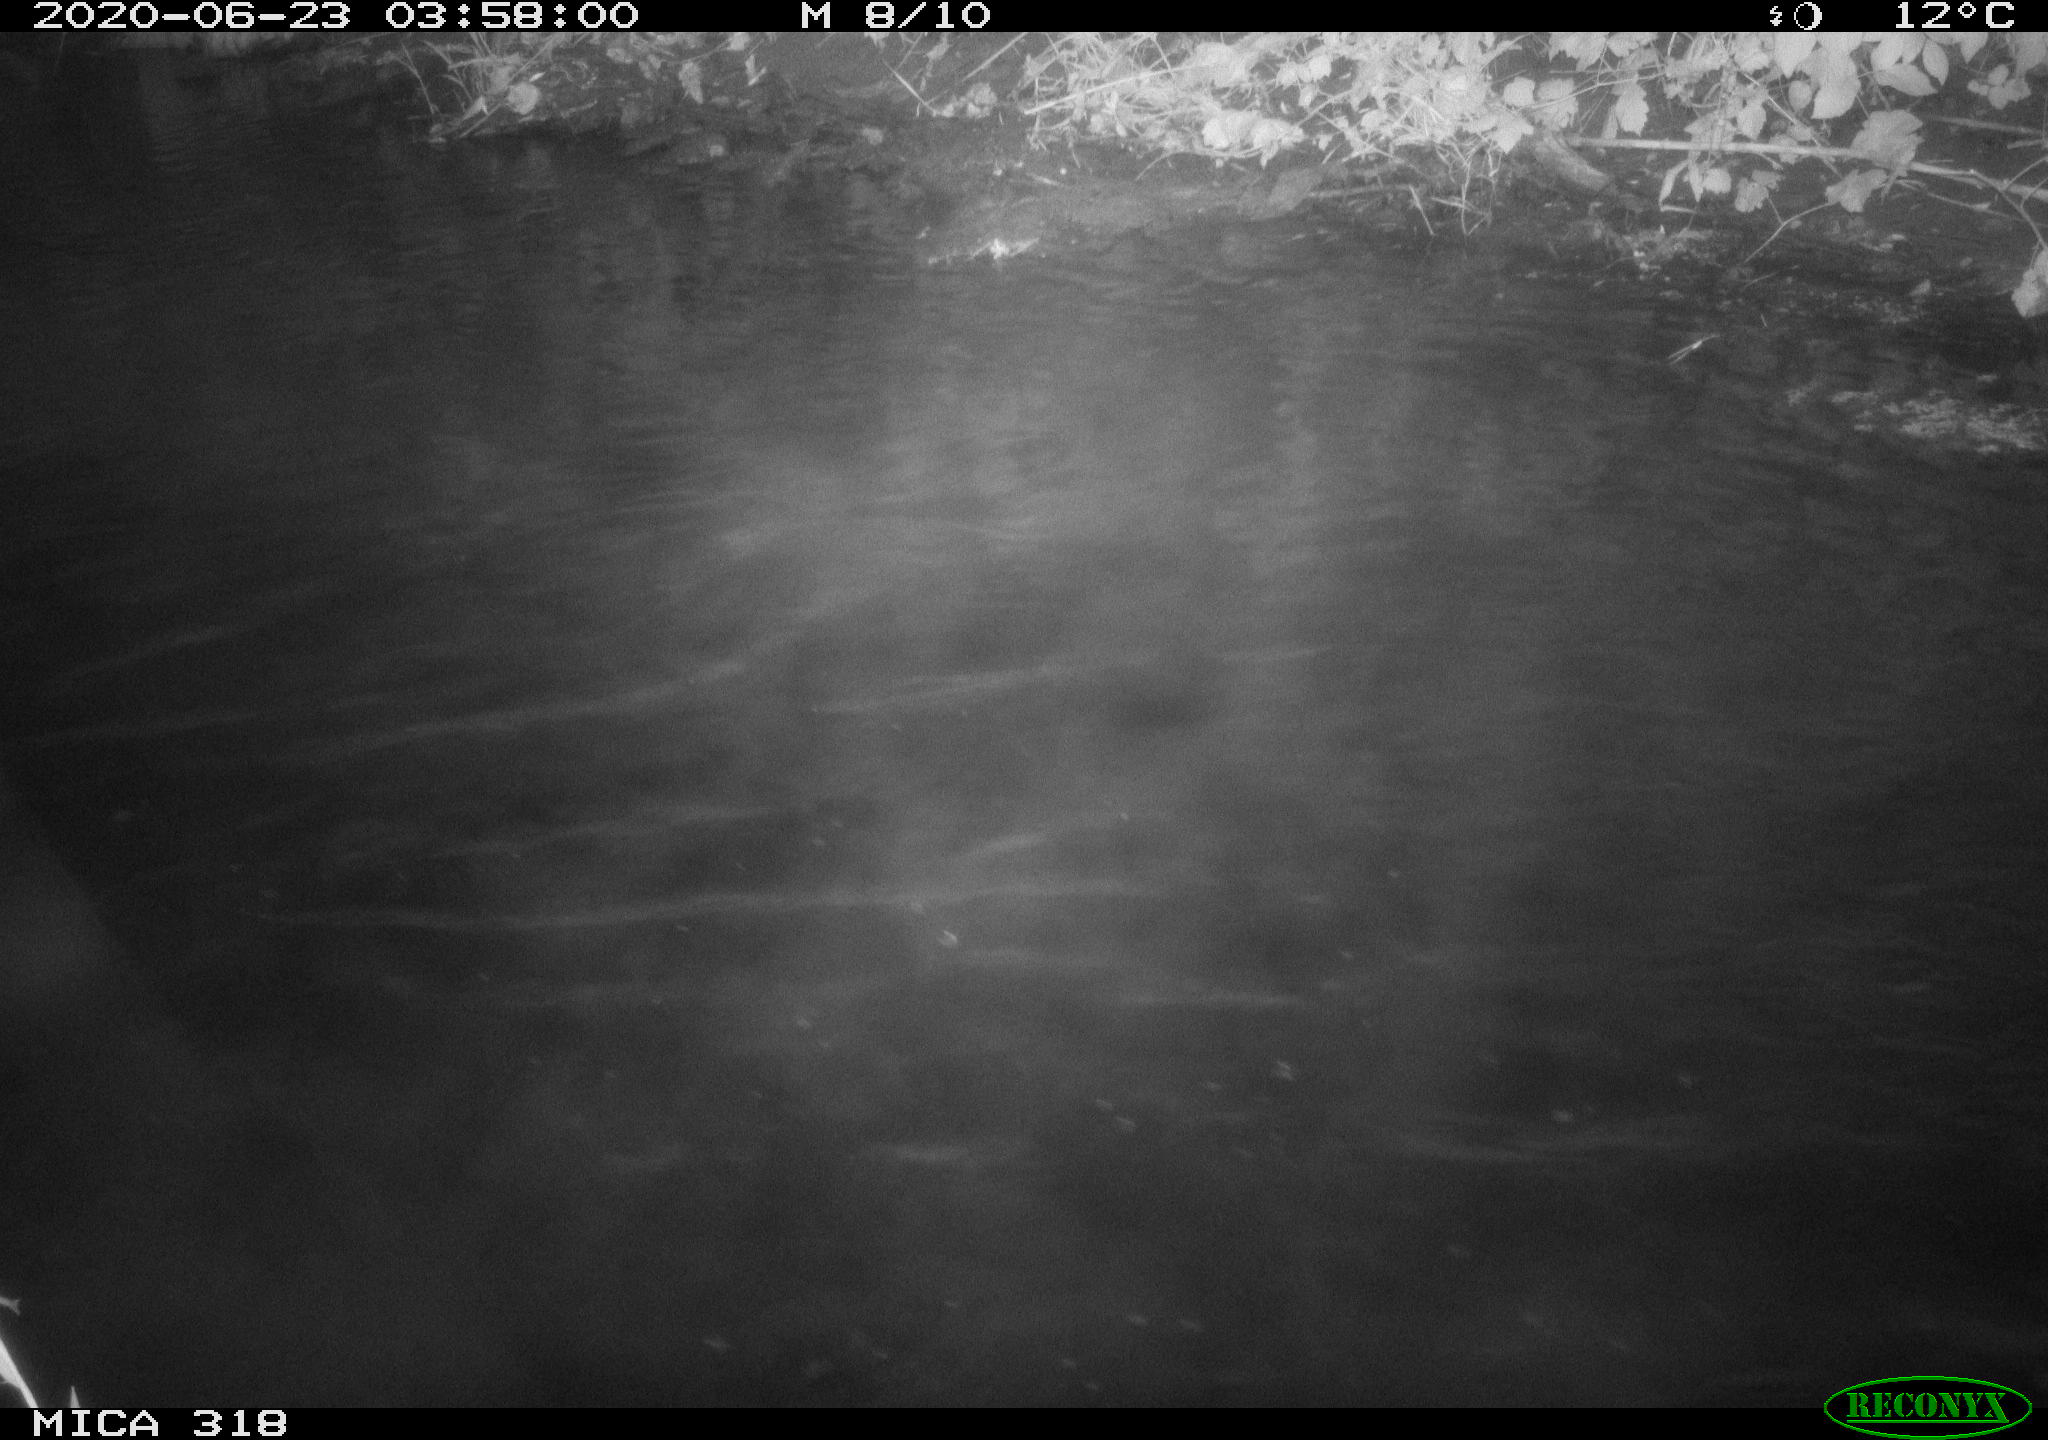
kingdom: Animalia
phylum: Chordata
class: Aves
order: Anseriformes
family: Anatidae
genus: Anas
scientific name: Anas platyrhynchos
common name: Mallard
